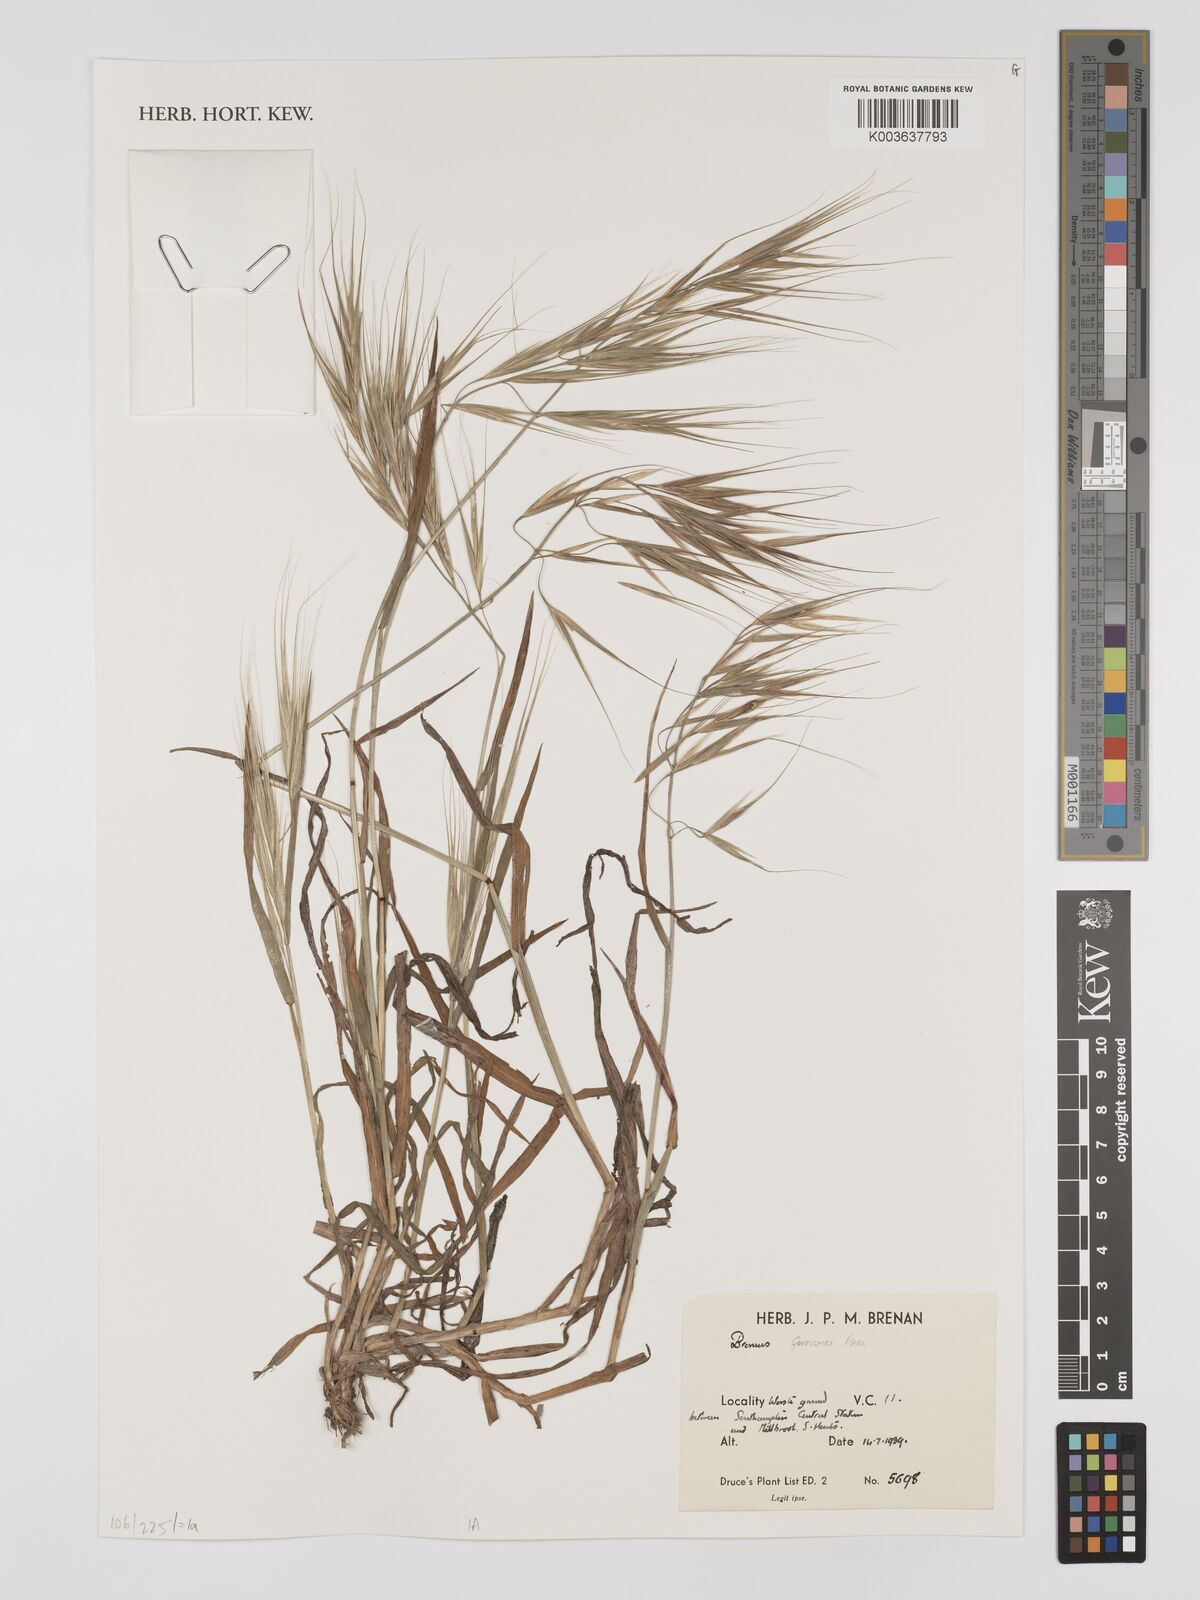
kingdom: Plantae
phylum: Tracheophyta
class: Liliopsida
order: Poales
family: Poaceae
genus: Bromus
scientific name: Bromus
